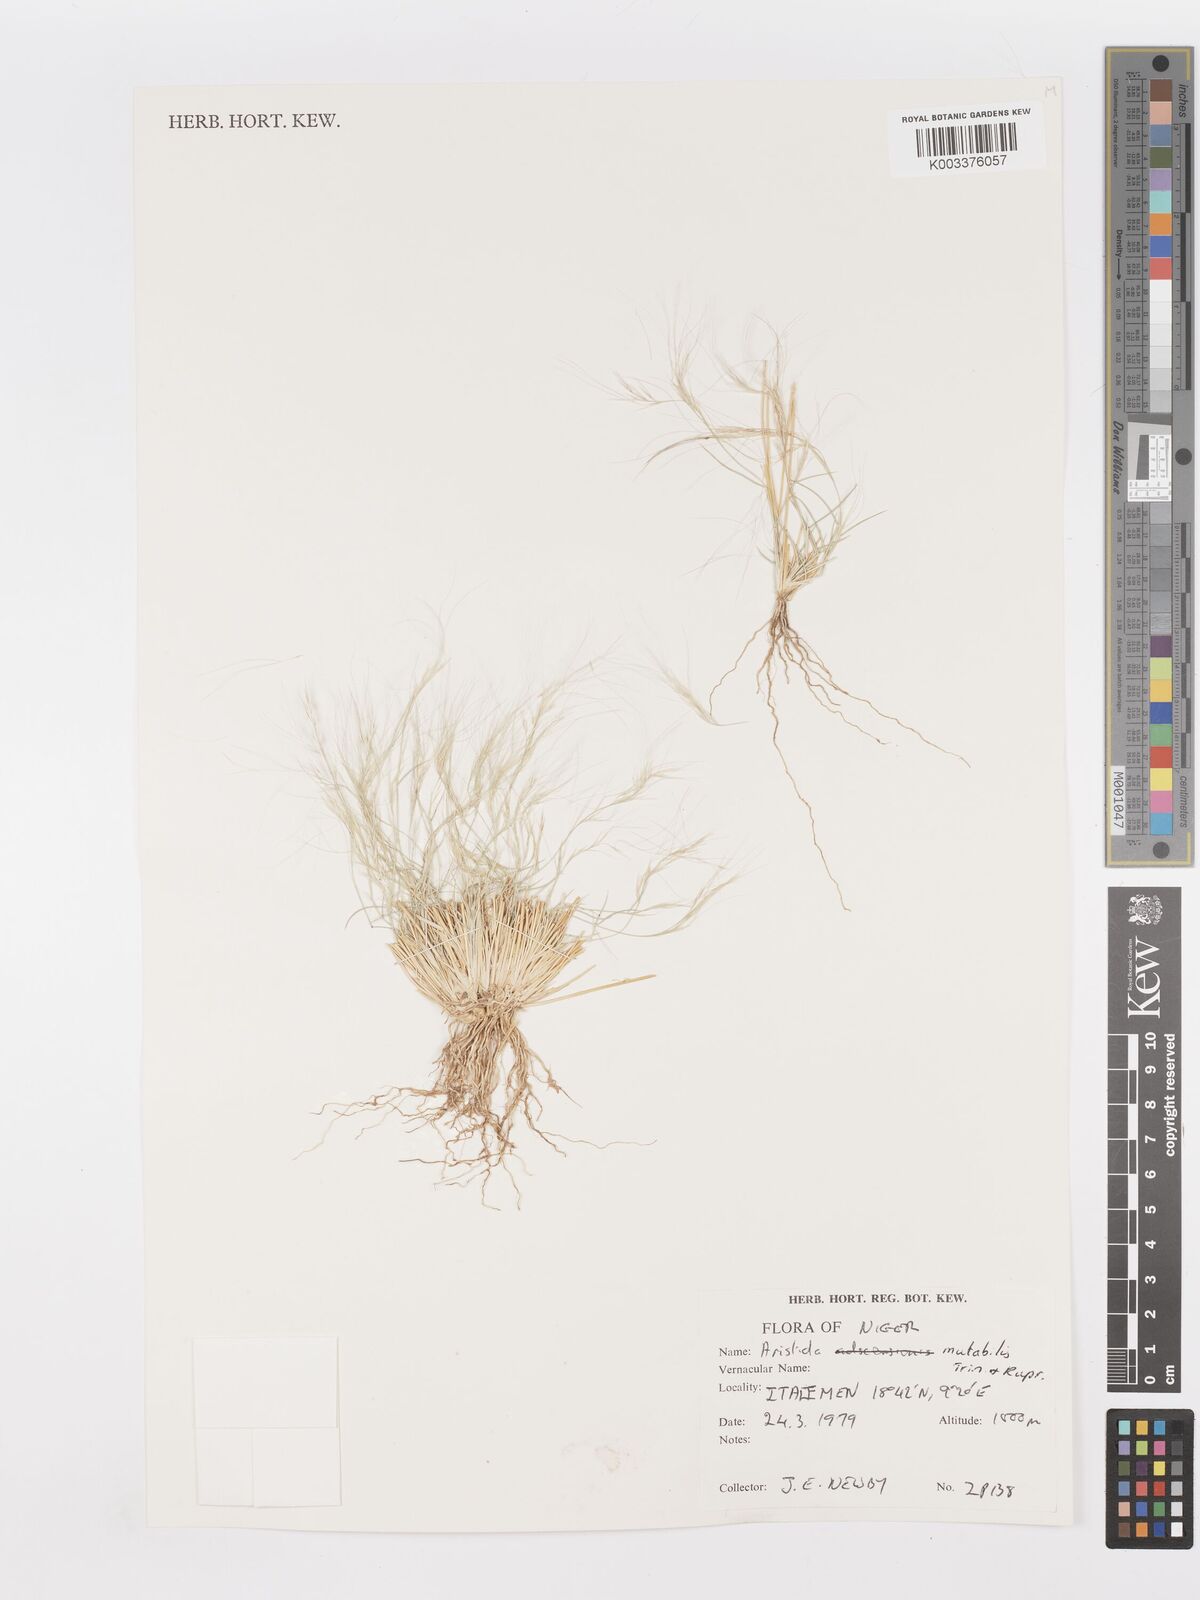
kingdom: Plantae
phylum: Tracheophyta
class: Liliopsida
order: Poales
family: Poaceae
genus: Aristida
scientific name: Aristida mutabilis
